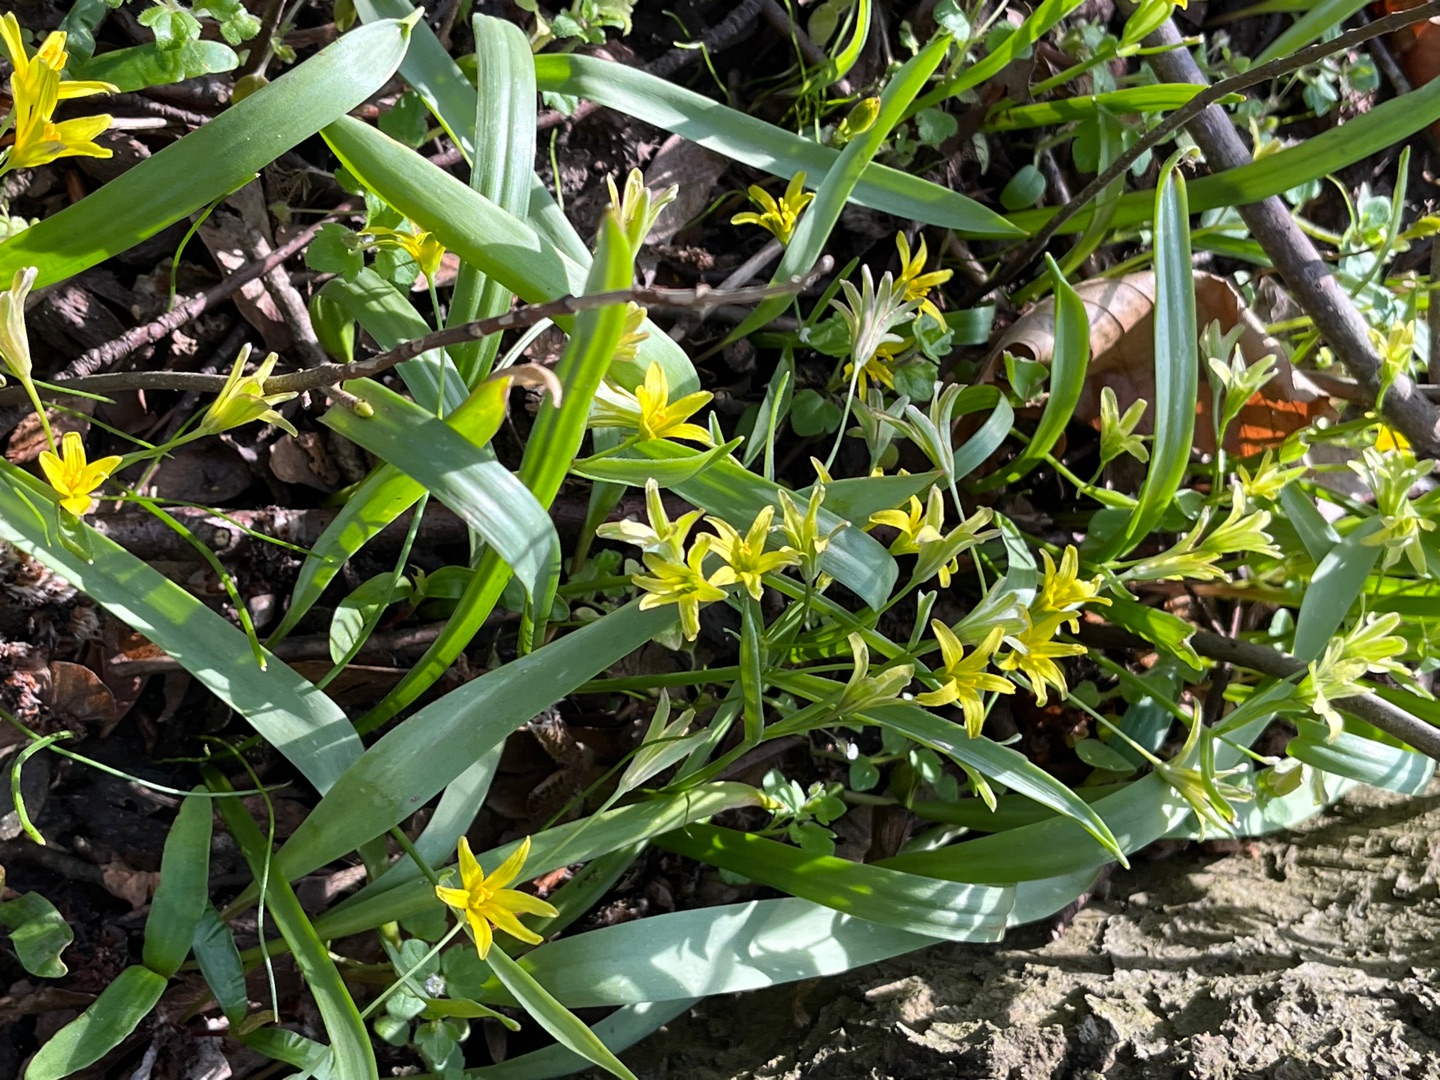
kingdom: Plantae
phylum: Tracheophyta
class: Liliopsida
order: Liliales
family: Liliaceae
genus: Gagea
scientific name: Gagea lutea
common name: Almindelig guldstjerne
